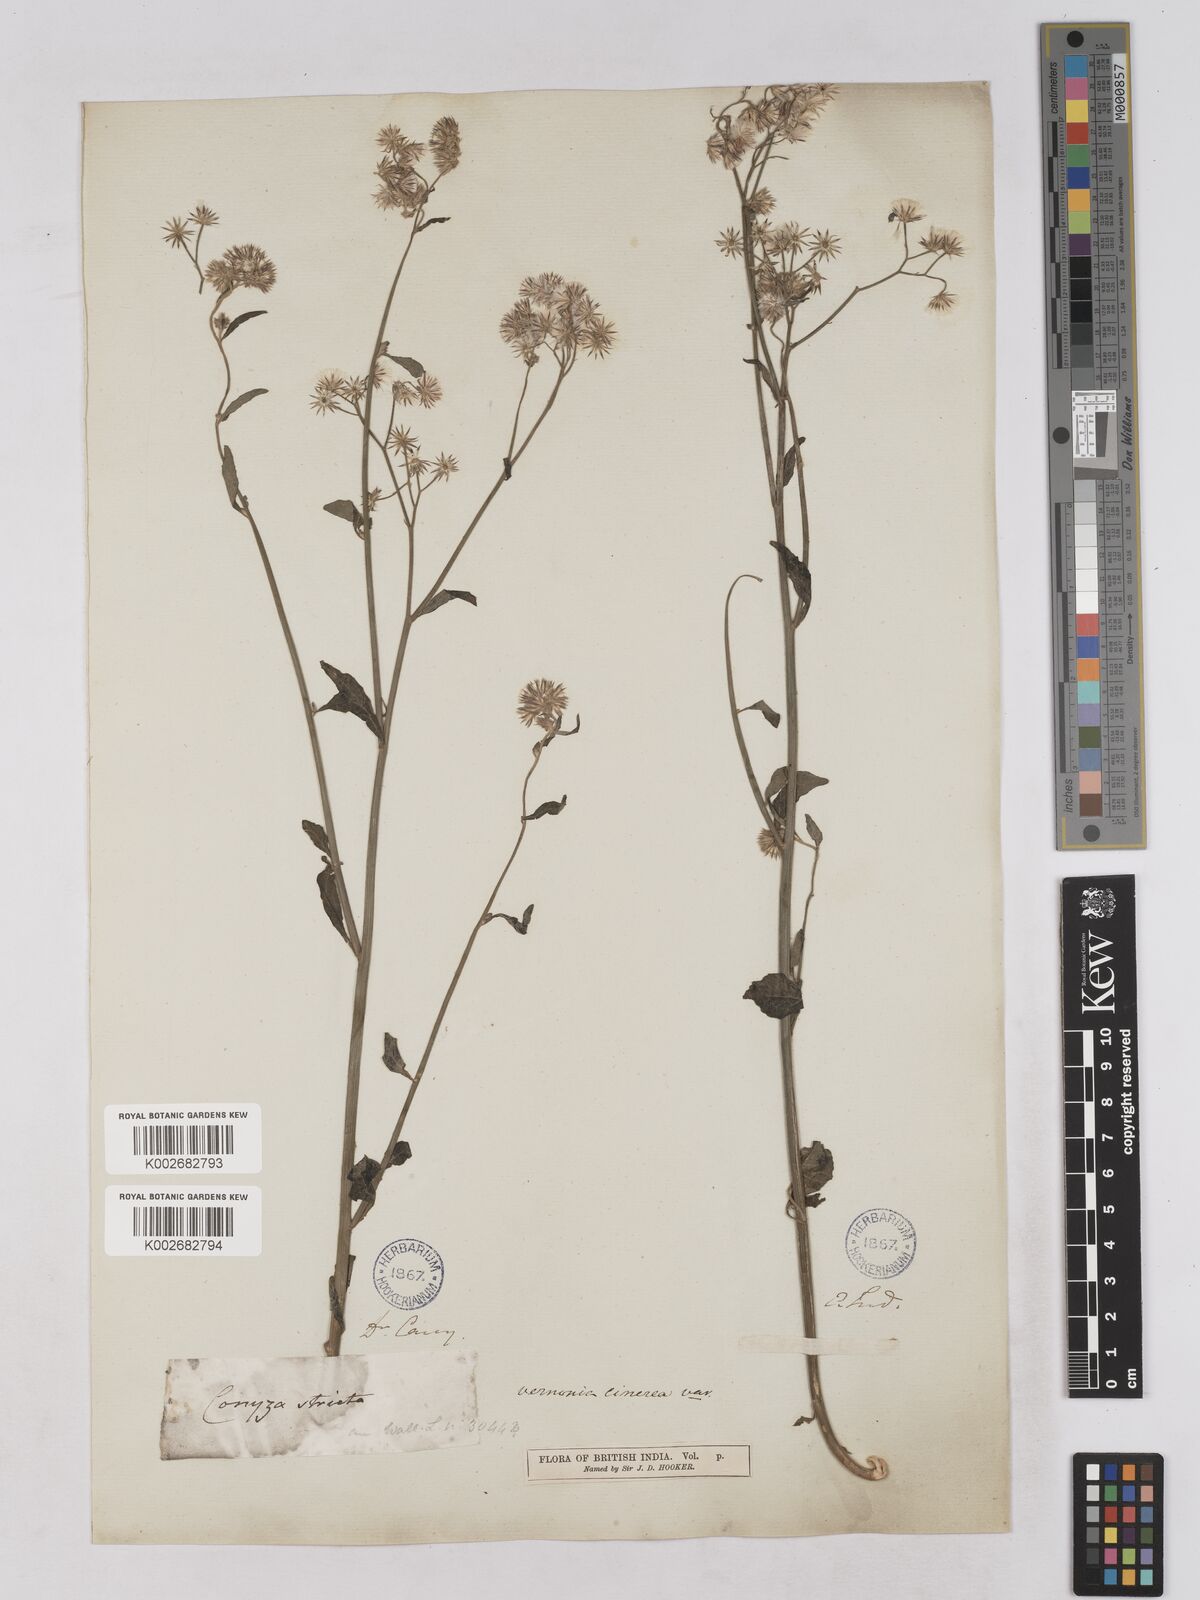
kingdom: Plantae
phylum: Tracheophyta
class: Magnoliopsida
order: Asterales
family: Asteraceae
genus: Cyanthillium
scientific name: Cyanthillium cinereum
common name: Little ironweed
